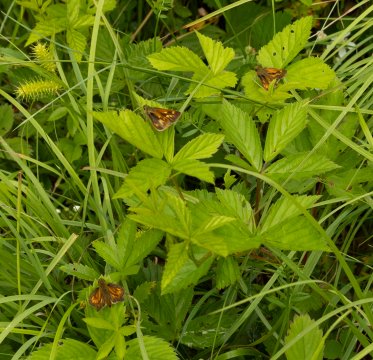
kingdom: Animalia
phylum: Arthropoda
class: Insecta
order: Lepidoptera
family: Hesperiidae
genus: Polites
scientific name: Polites
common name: Long Dash Skipper
